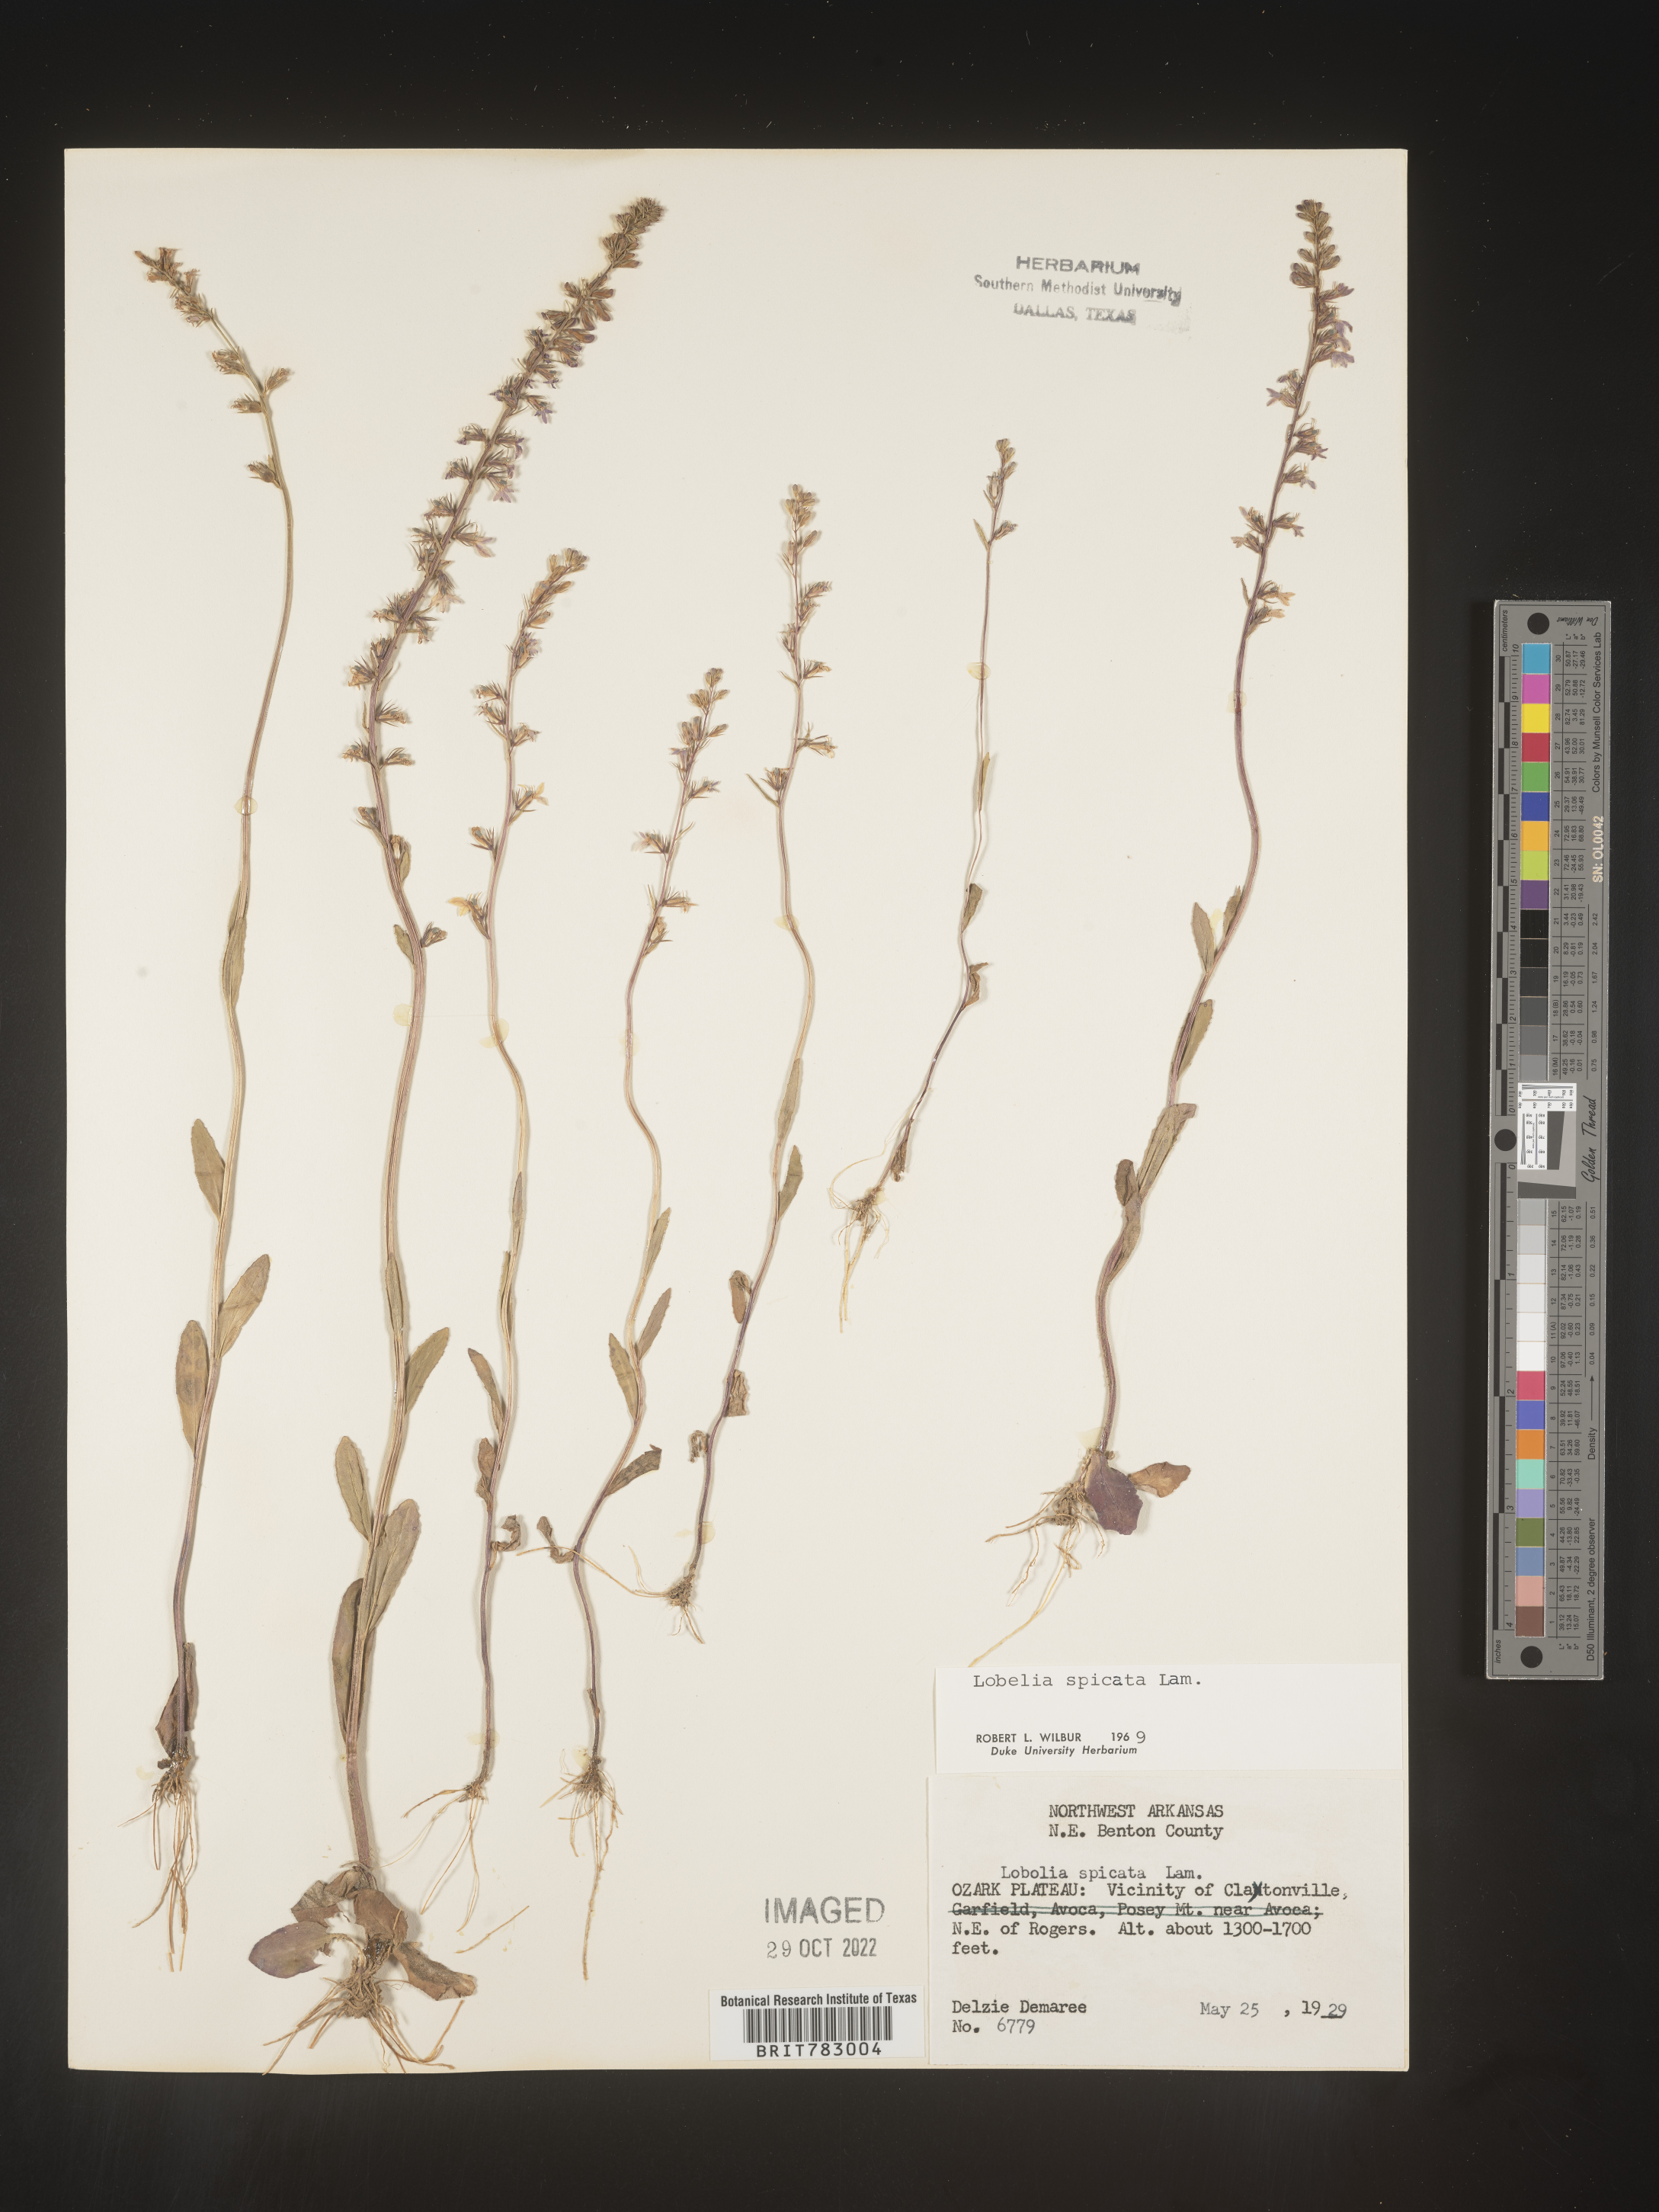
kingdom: Plantae
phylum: Tracheophyta
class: Magnoliopsida
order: Asterales
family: Campanulaceae
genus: Lobelia
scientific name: Lobelia spicata
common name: Pale-spike lobelia
